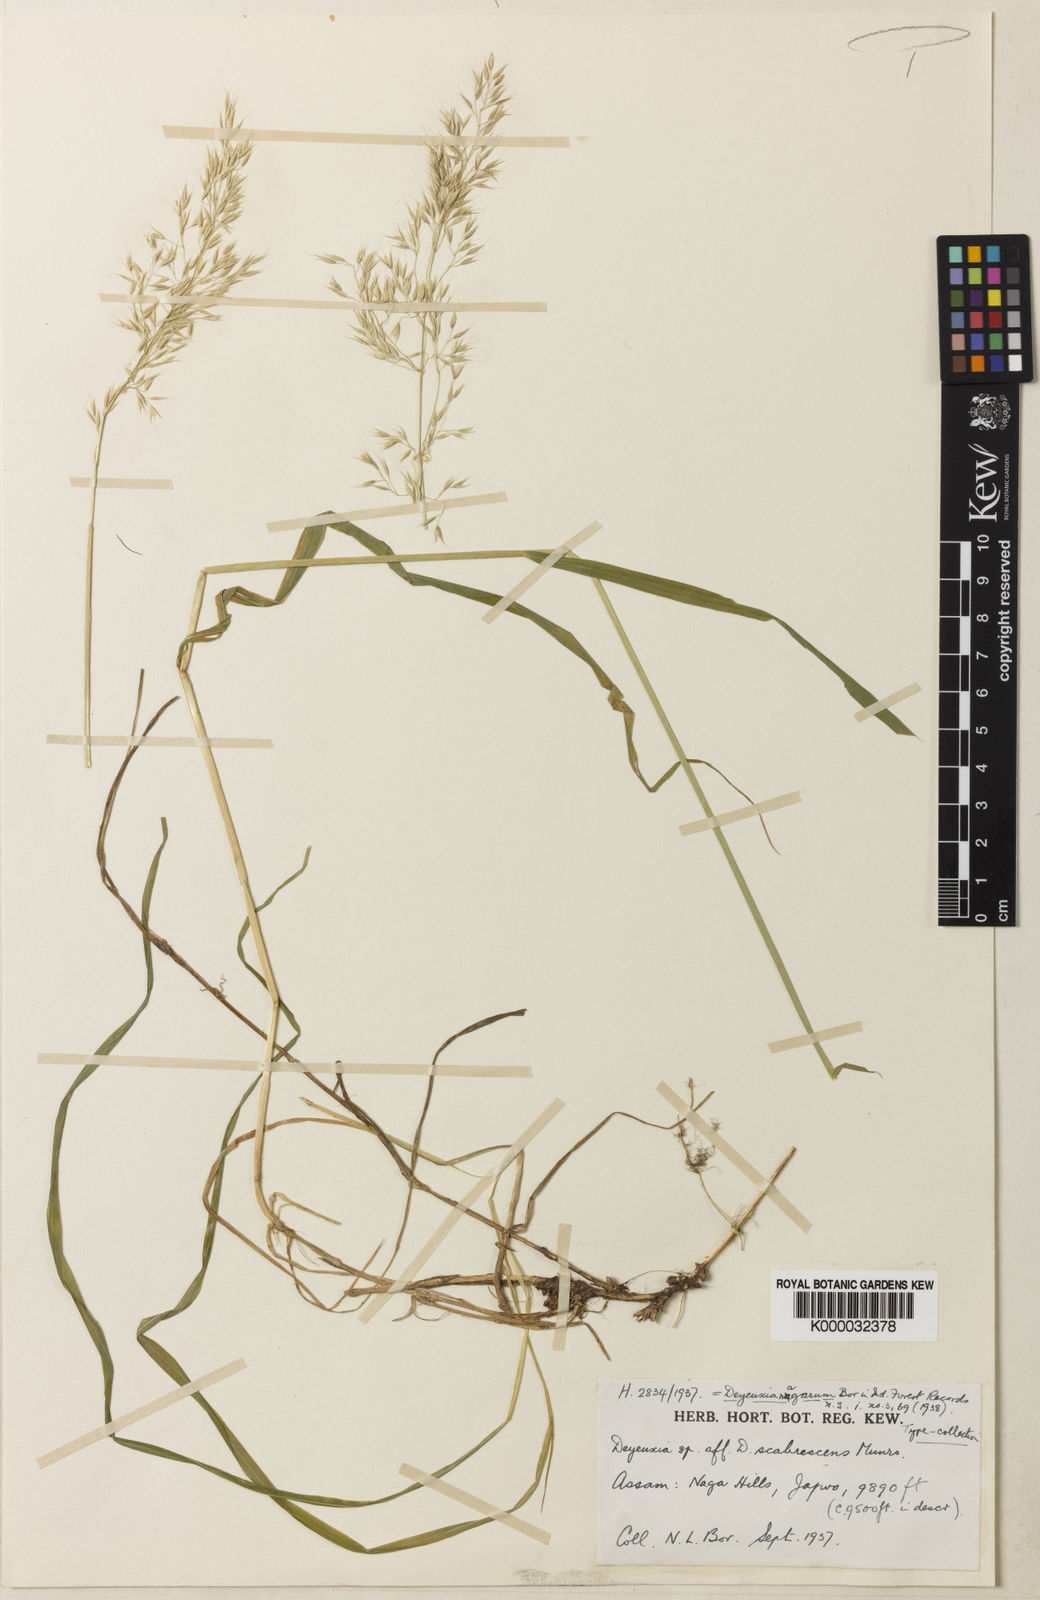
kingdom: Plantae
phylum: Tracheophyta
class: Liliopsida
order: Poales
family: Poaceae
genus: Calamagrostis
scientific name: Calamagrostis nagarum
